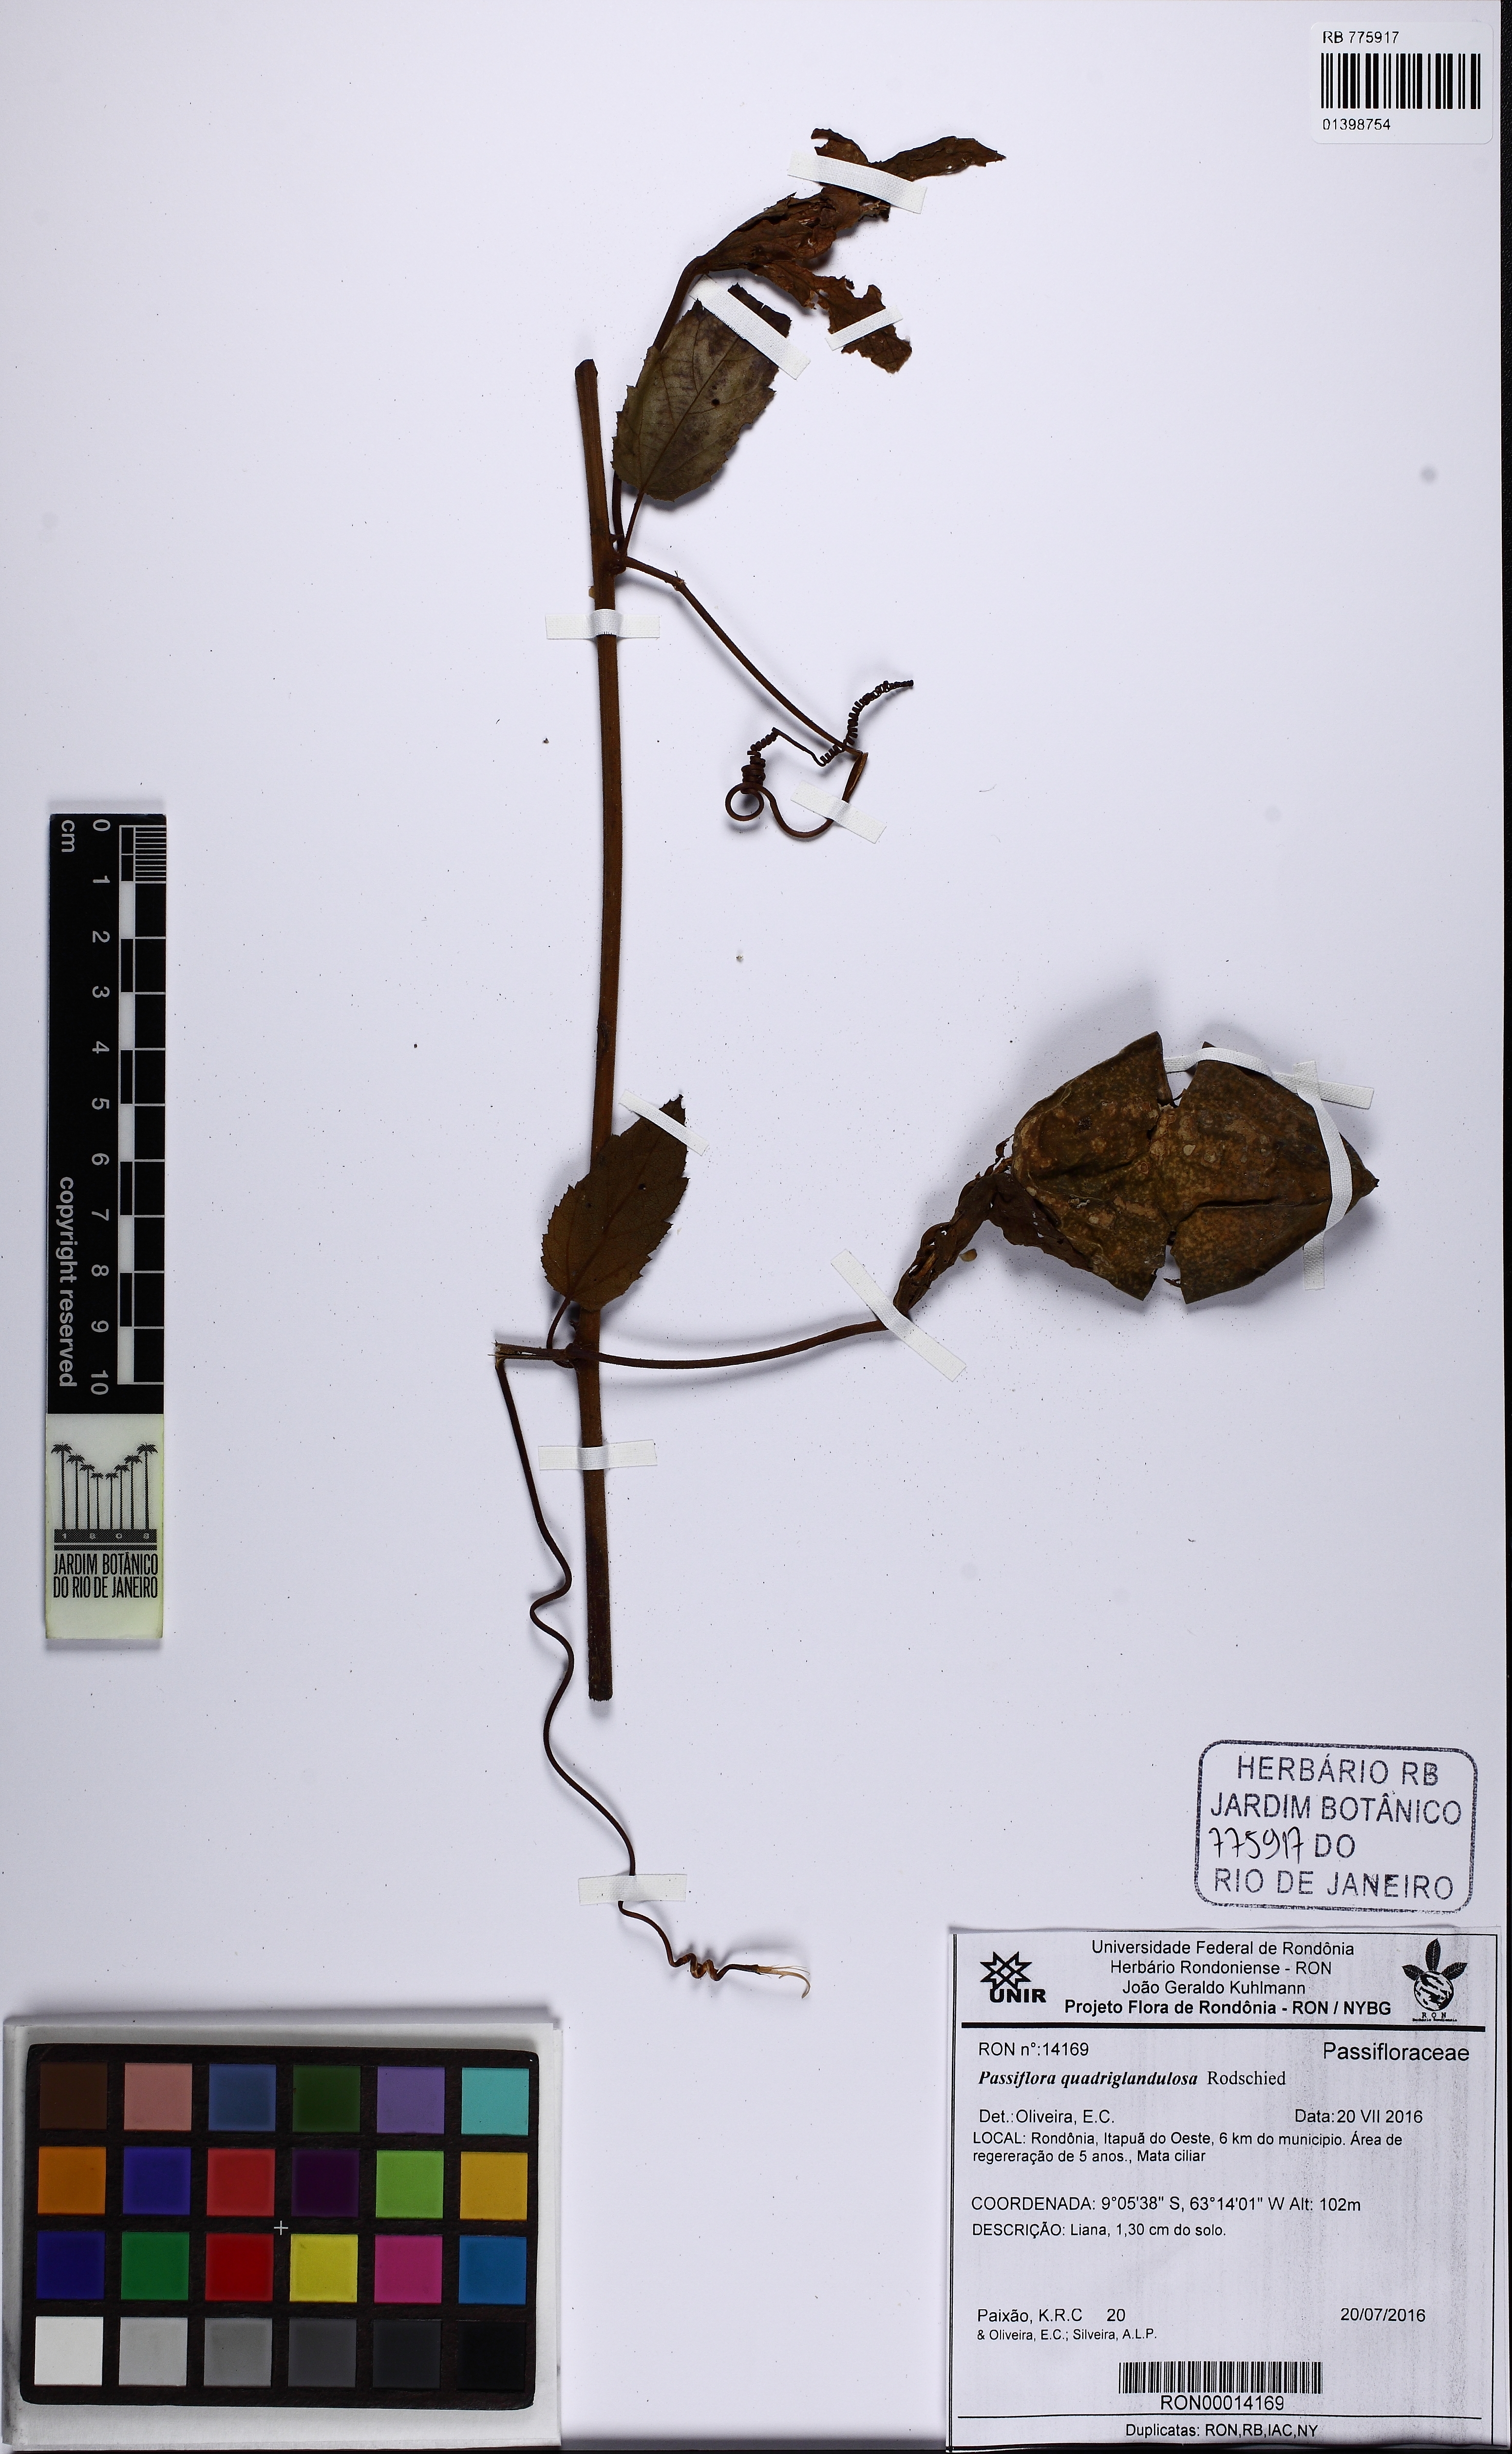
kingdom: Plantae
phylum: Tracheophyta
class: Magnoliopsida
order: Malpighiales
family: Passifloraceae
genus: Passiflora
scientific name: Passiflora quadriglandulosa
